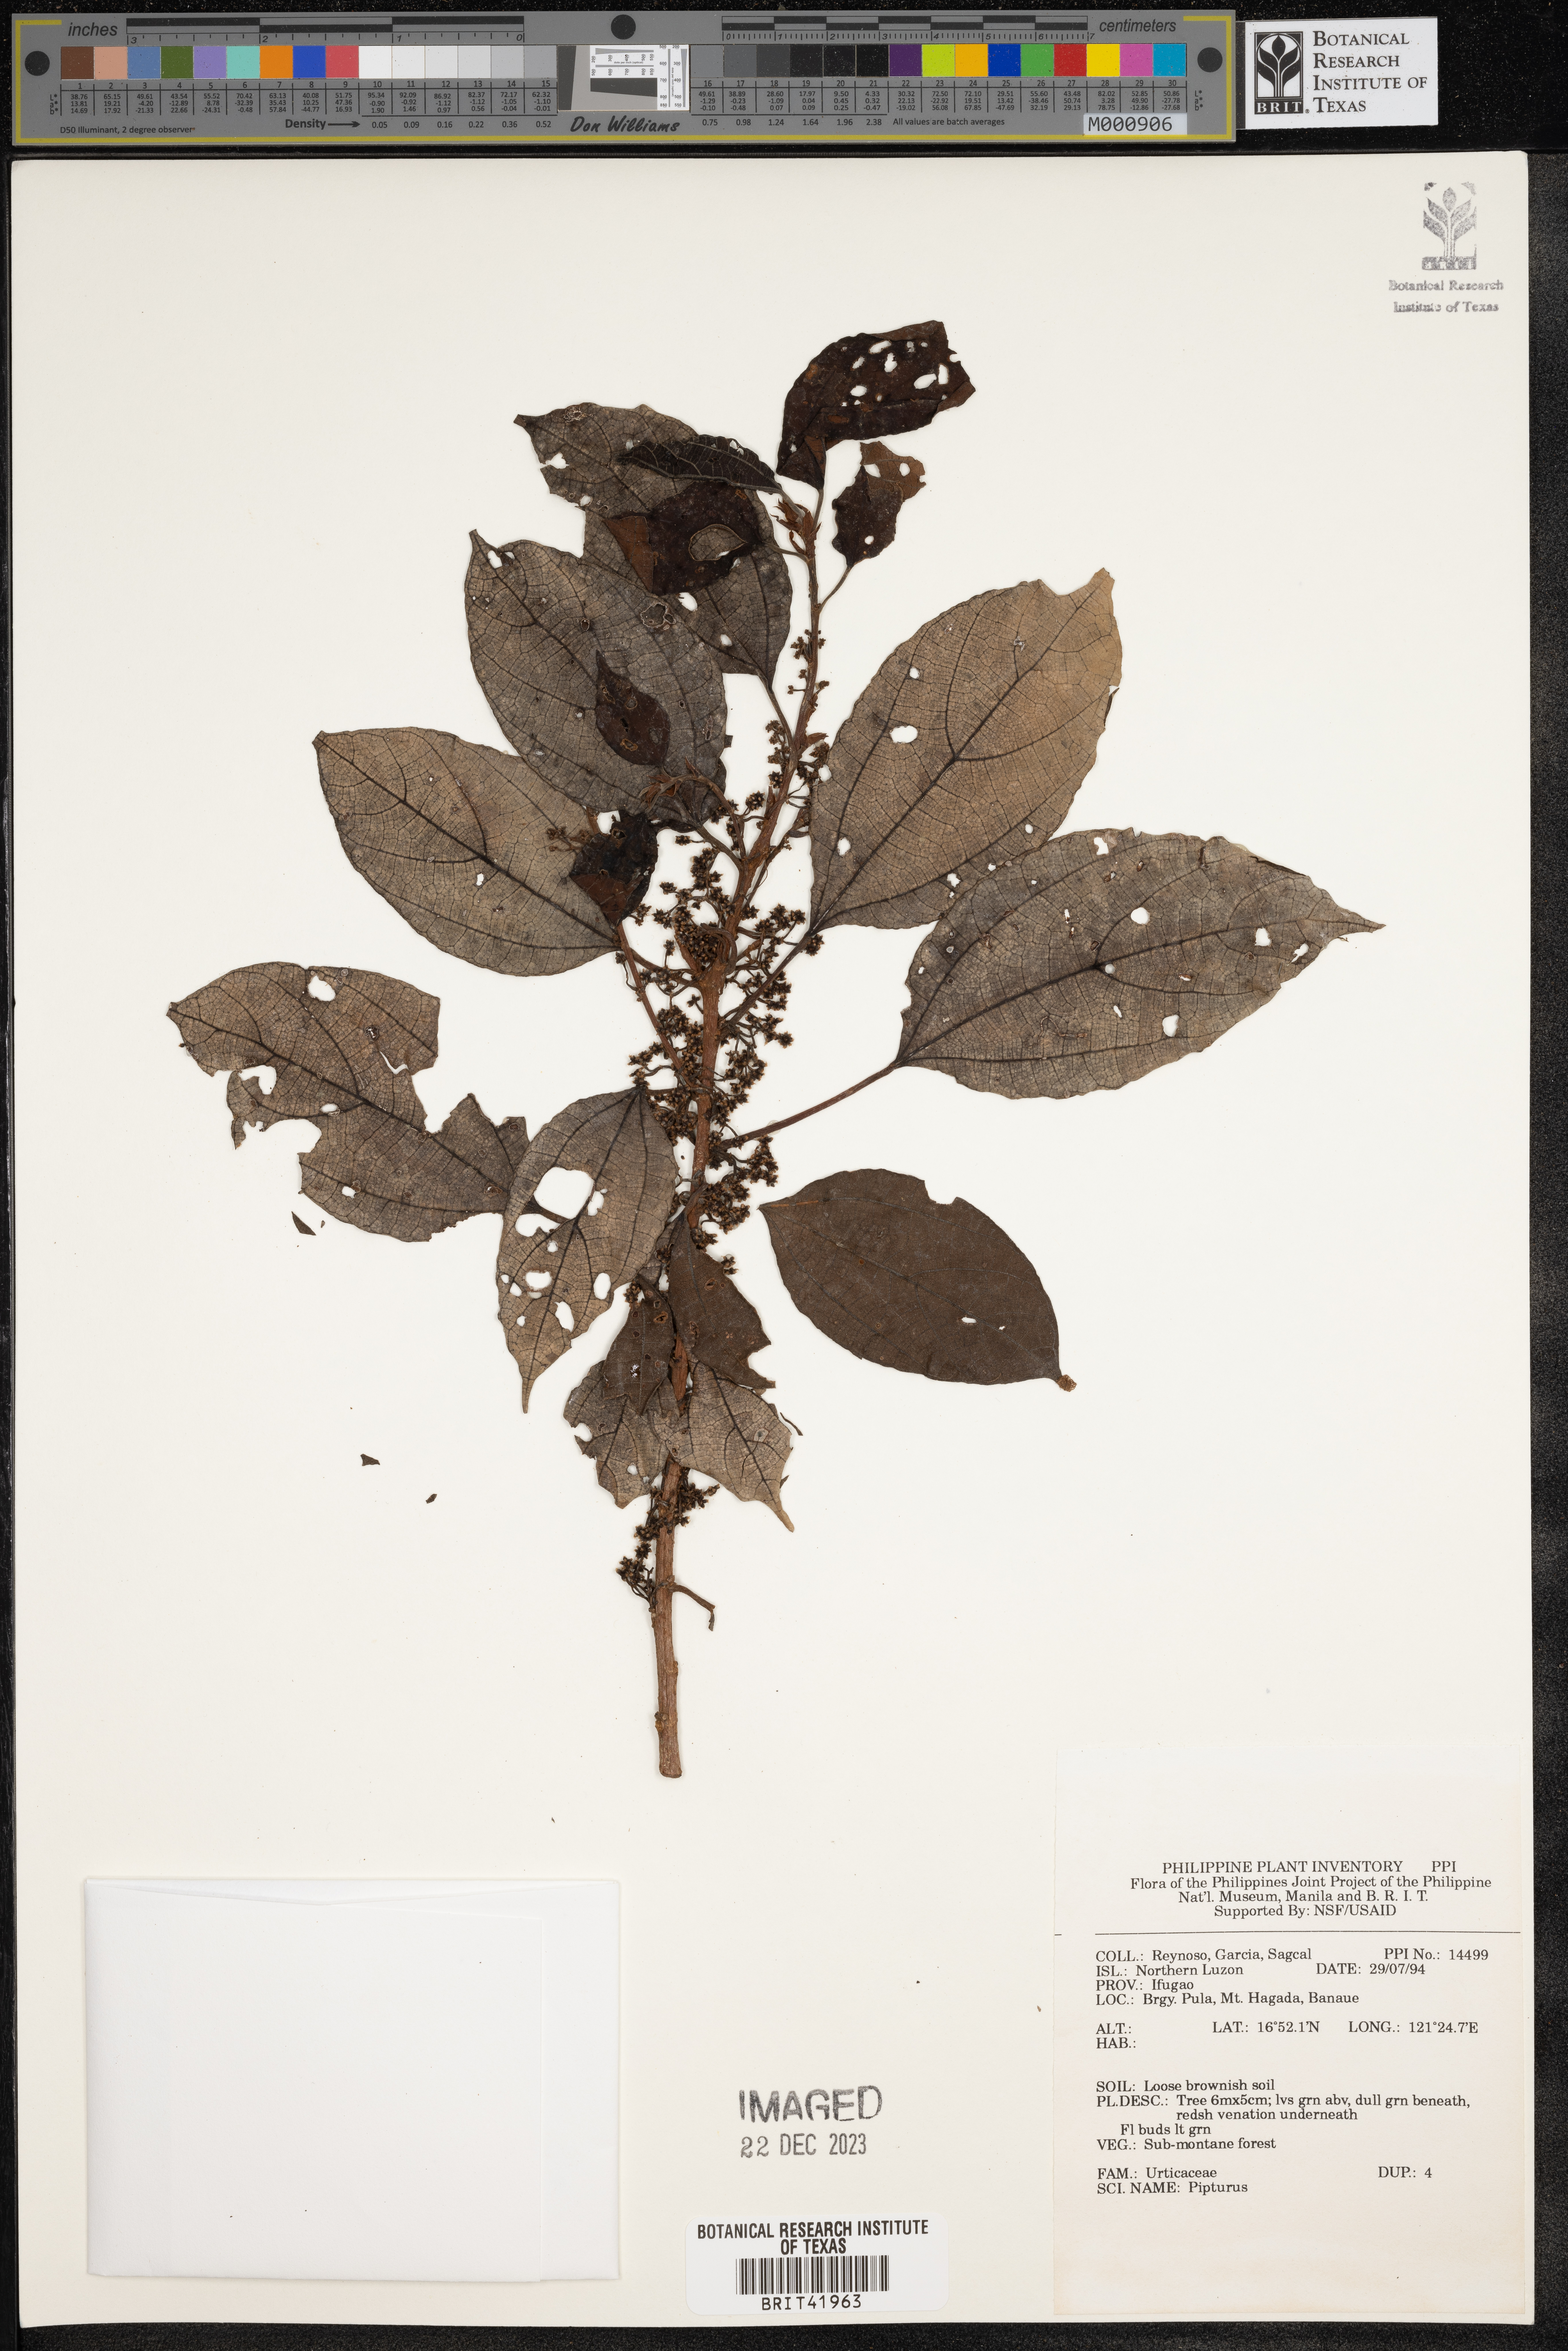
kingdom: Plantae
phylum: Tracheophyta
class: Magnoliopsida
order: Rosales
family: Urticaceae
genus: Pipturus
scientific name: Pipturus
